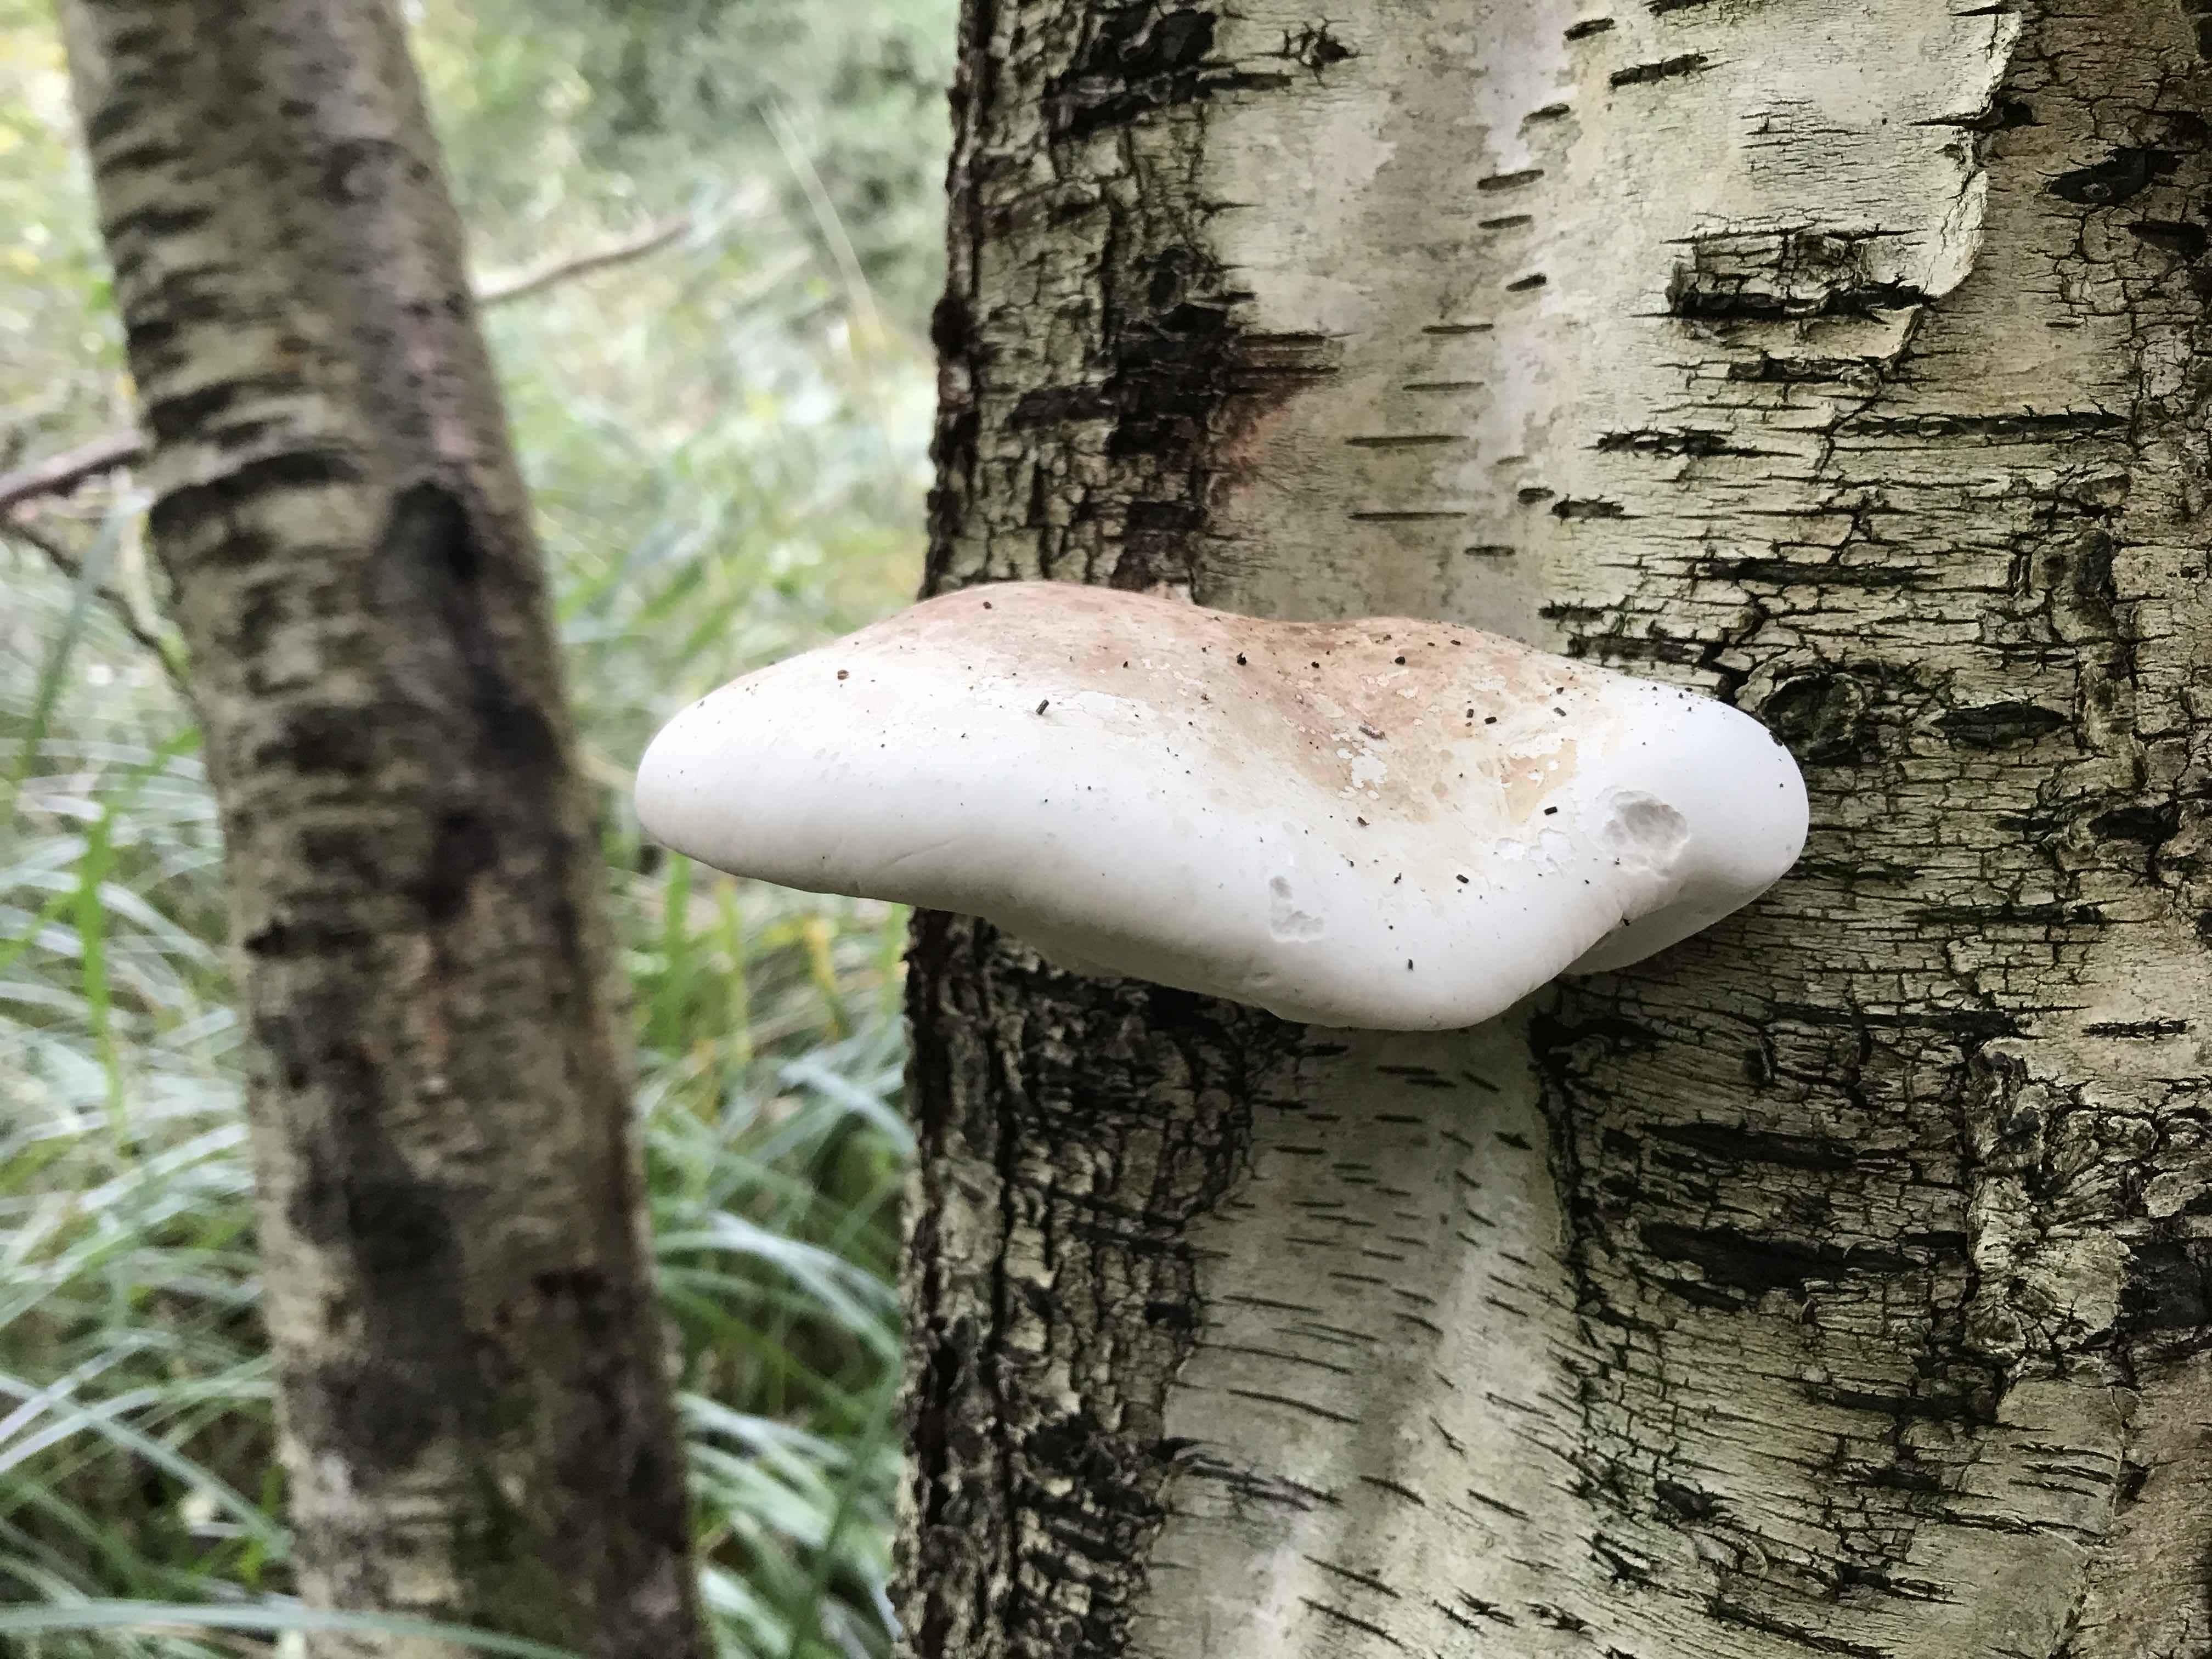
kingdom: Fungi
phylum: Basidiomycota
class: Agaricomycetes
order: Polyporales
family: Fomitopsidaceae
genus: Fomitopsis
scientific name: Fomitopsis betulina
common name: birkeporesvamp
